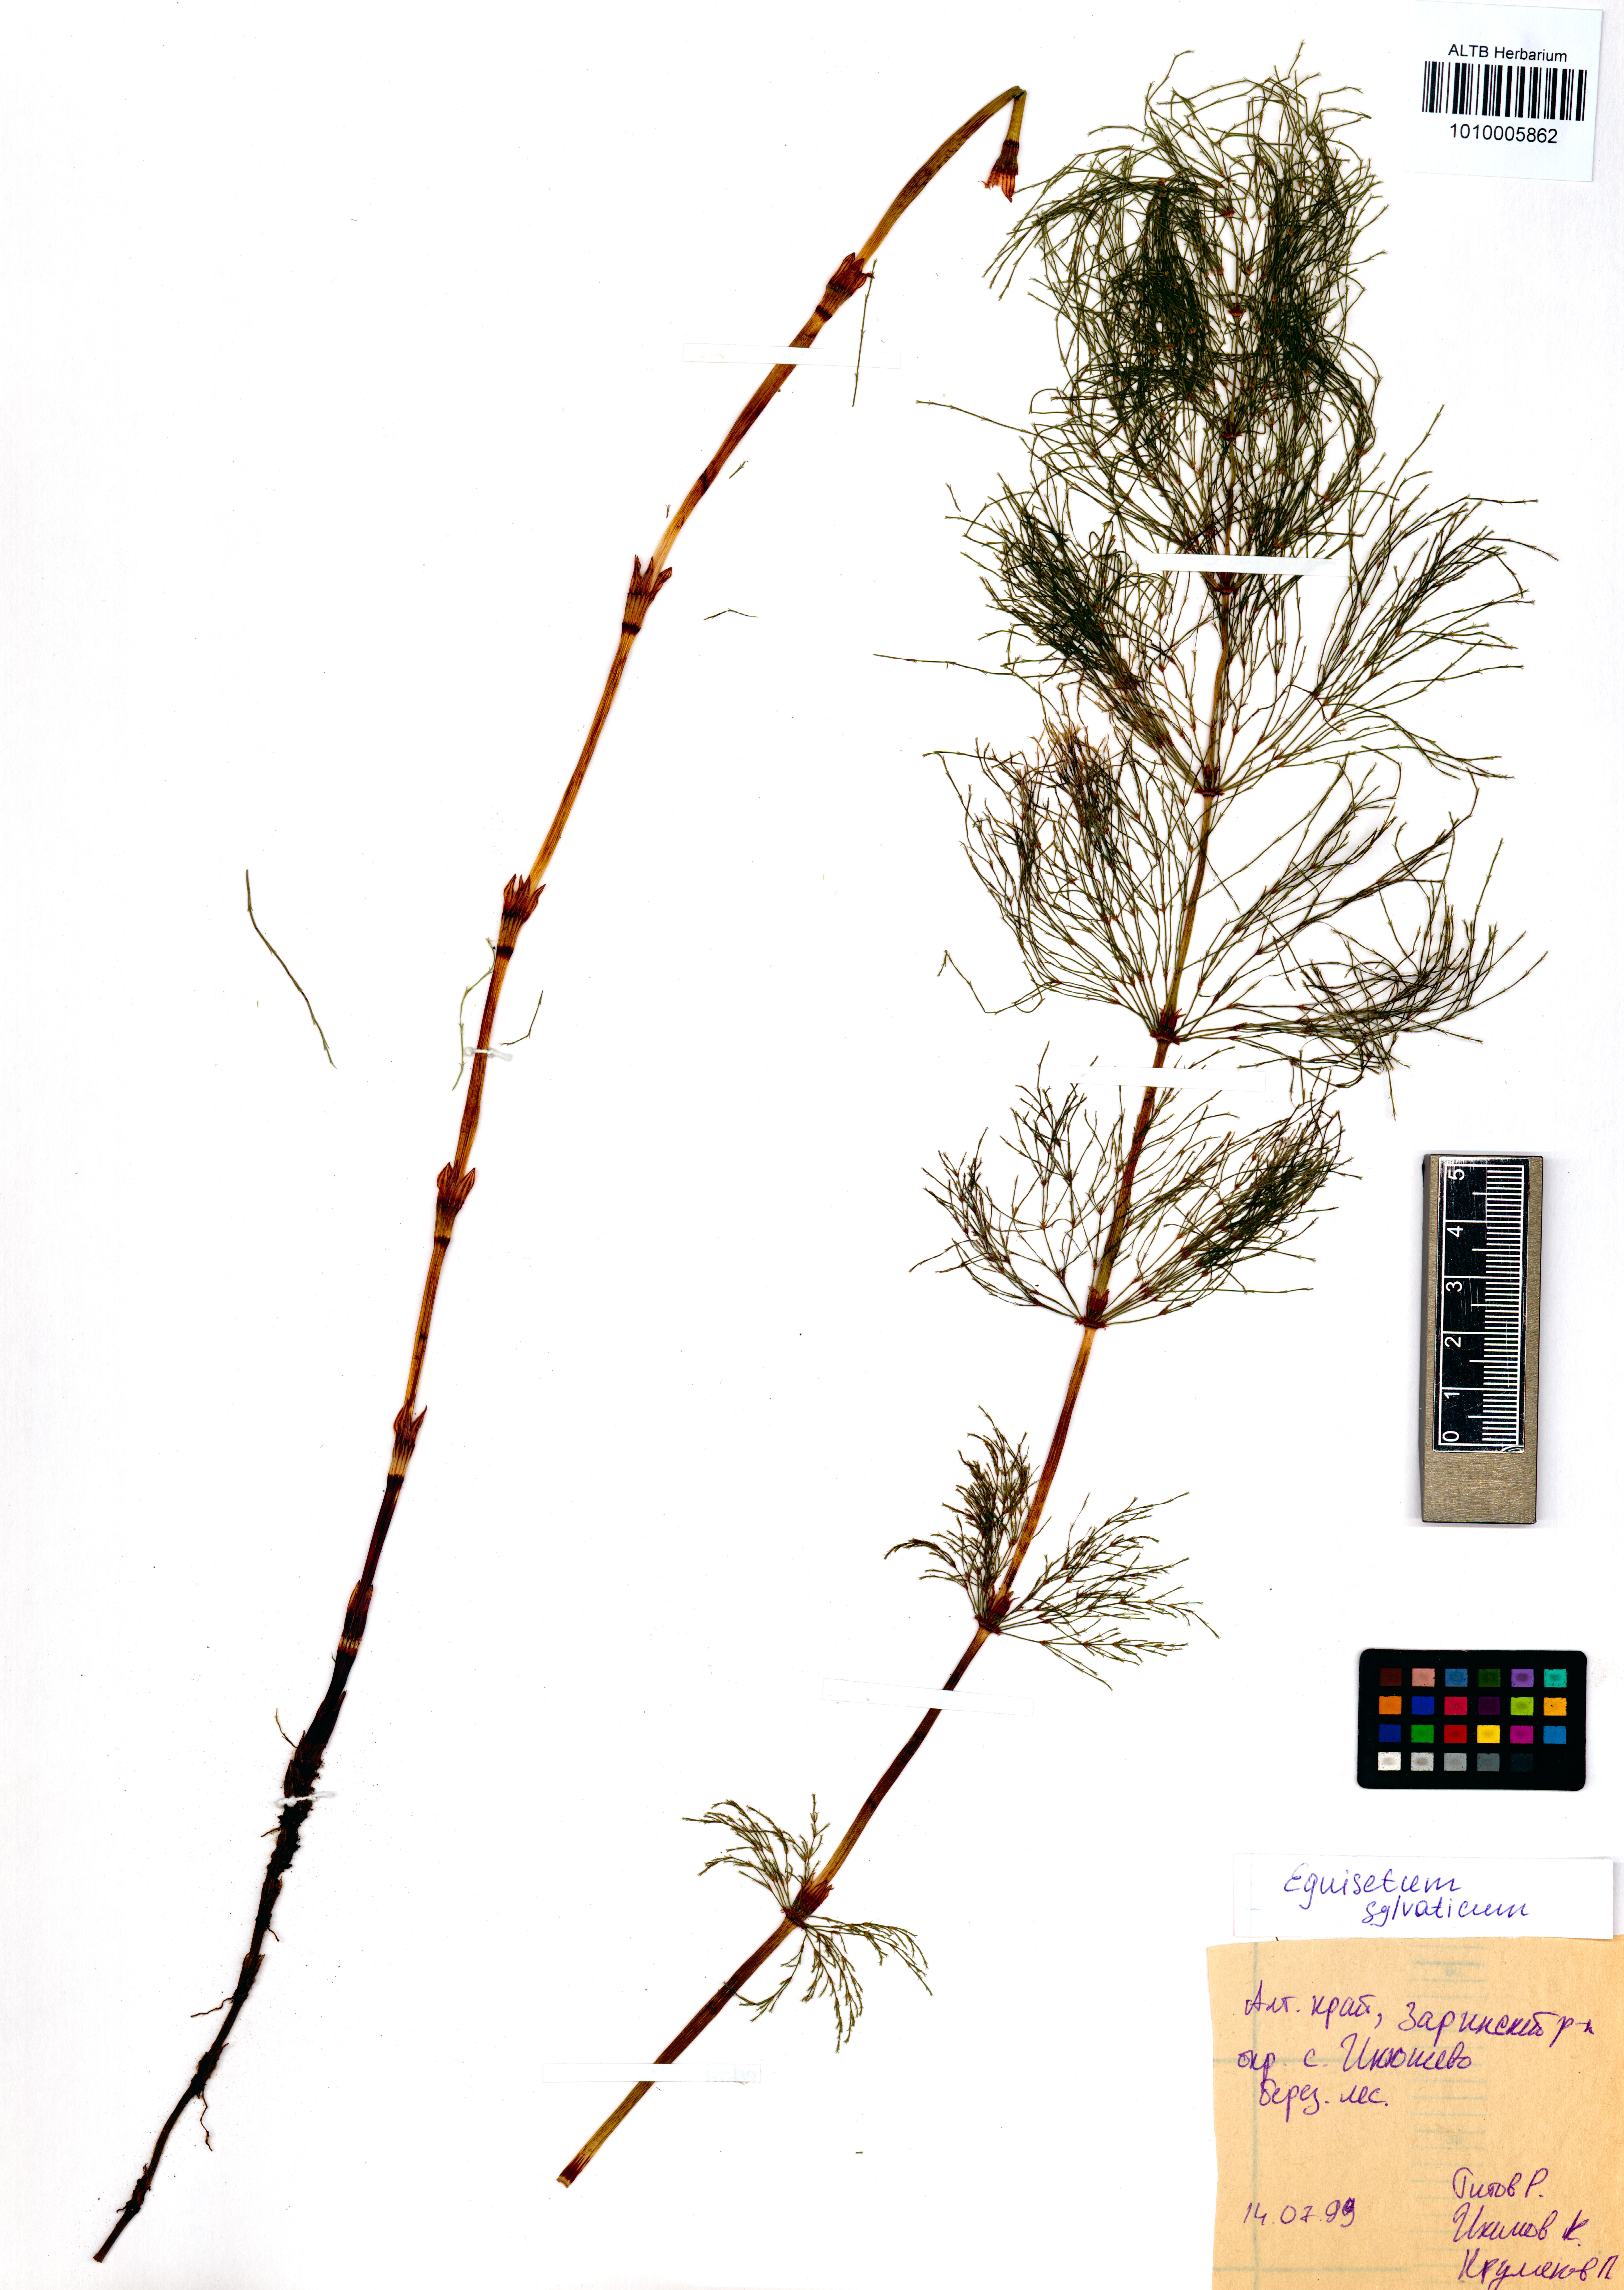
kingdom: Plantae
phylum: Tracheophyta
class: Polypodiopsida
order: Equisetales
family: Equisetaceae
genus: Equisetum
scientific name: Equisetum sylvaticum
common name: Wood horsetail
